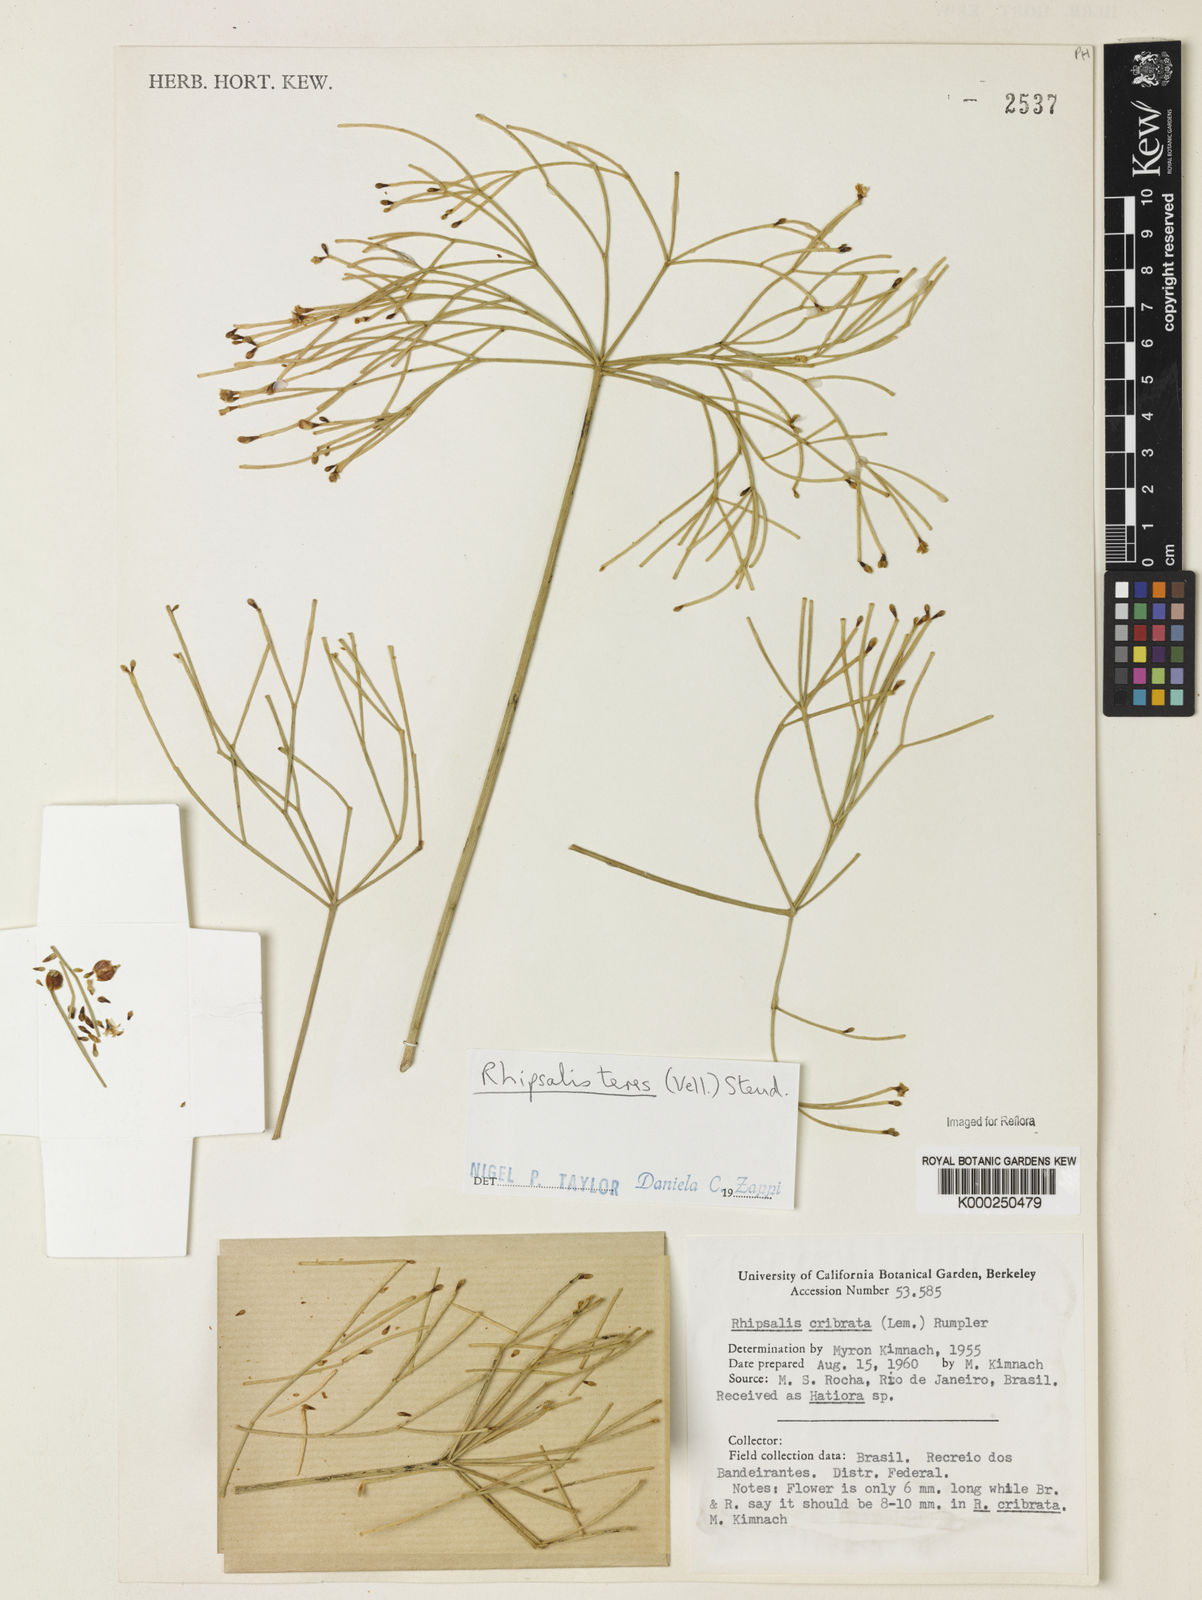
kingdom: Plantae
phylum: Tracheophyta
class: Magnoliopsida
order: Caryophyllales
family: Cactaceae
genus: Rhipsalis
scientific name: Rhipsalis teres
